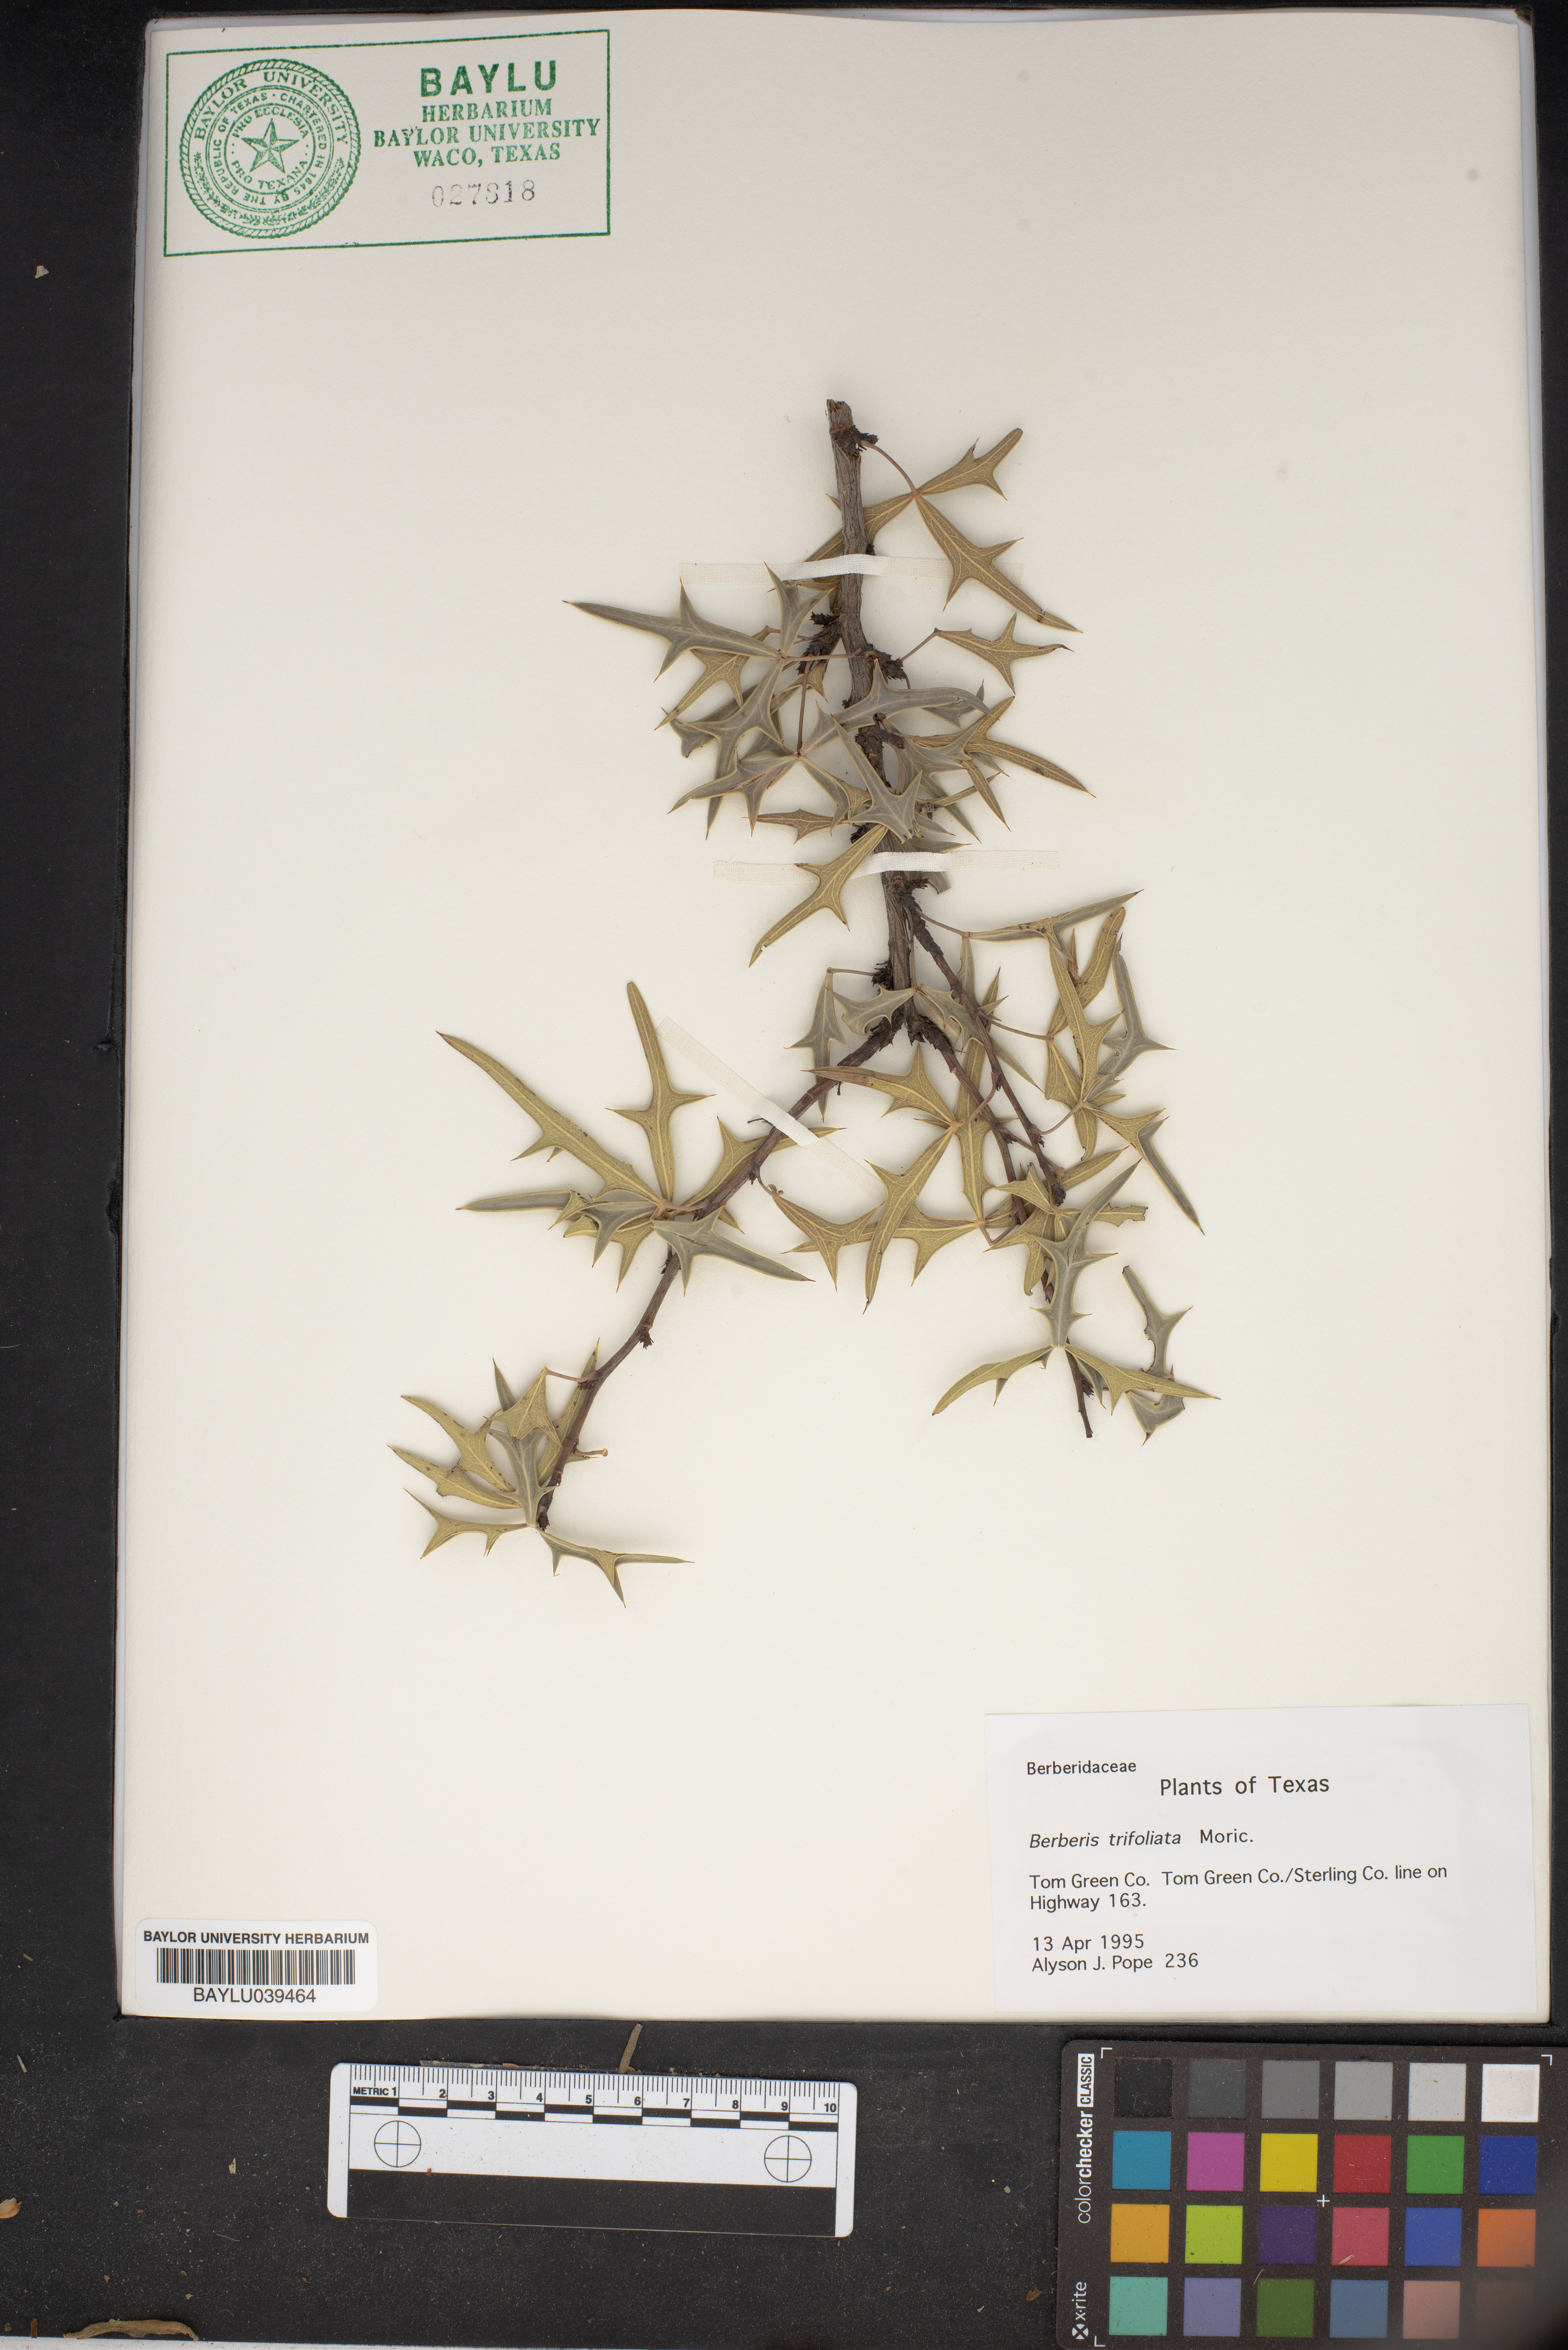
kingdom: Plantae
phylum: Tracheophyta
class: Magnoliopsida
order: Ranunculales
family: Berberidaceae
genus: Alloberberis
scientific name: Alloberberis fremontii
